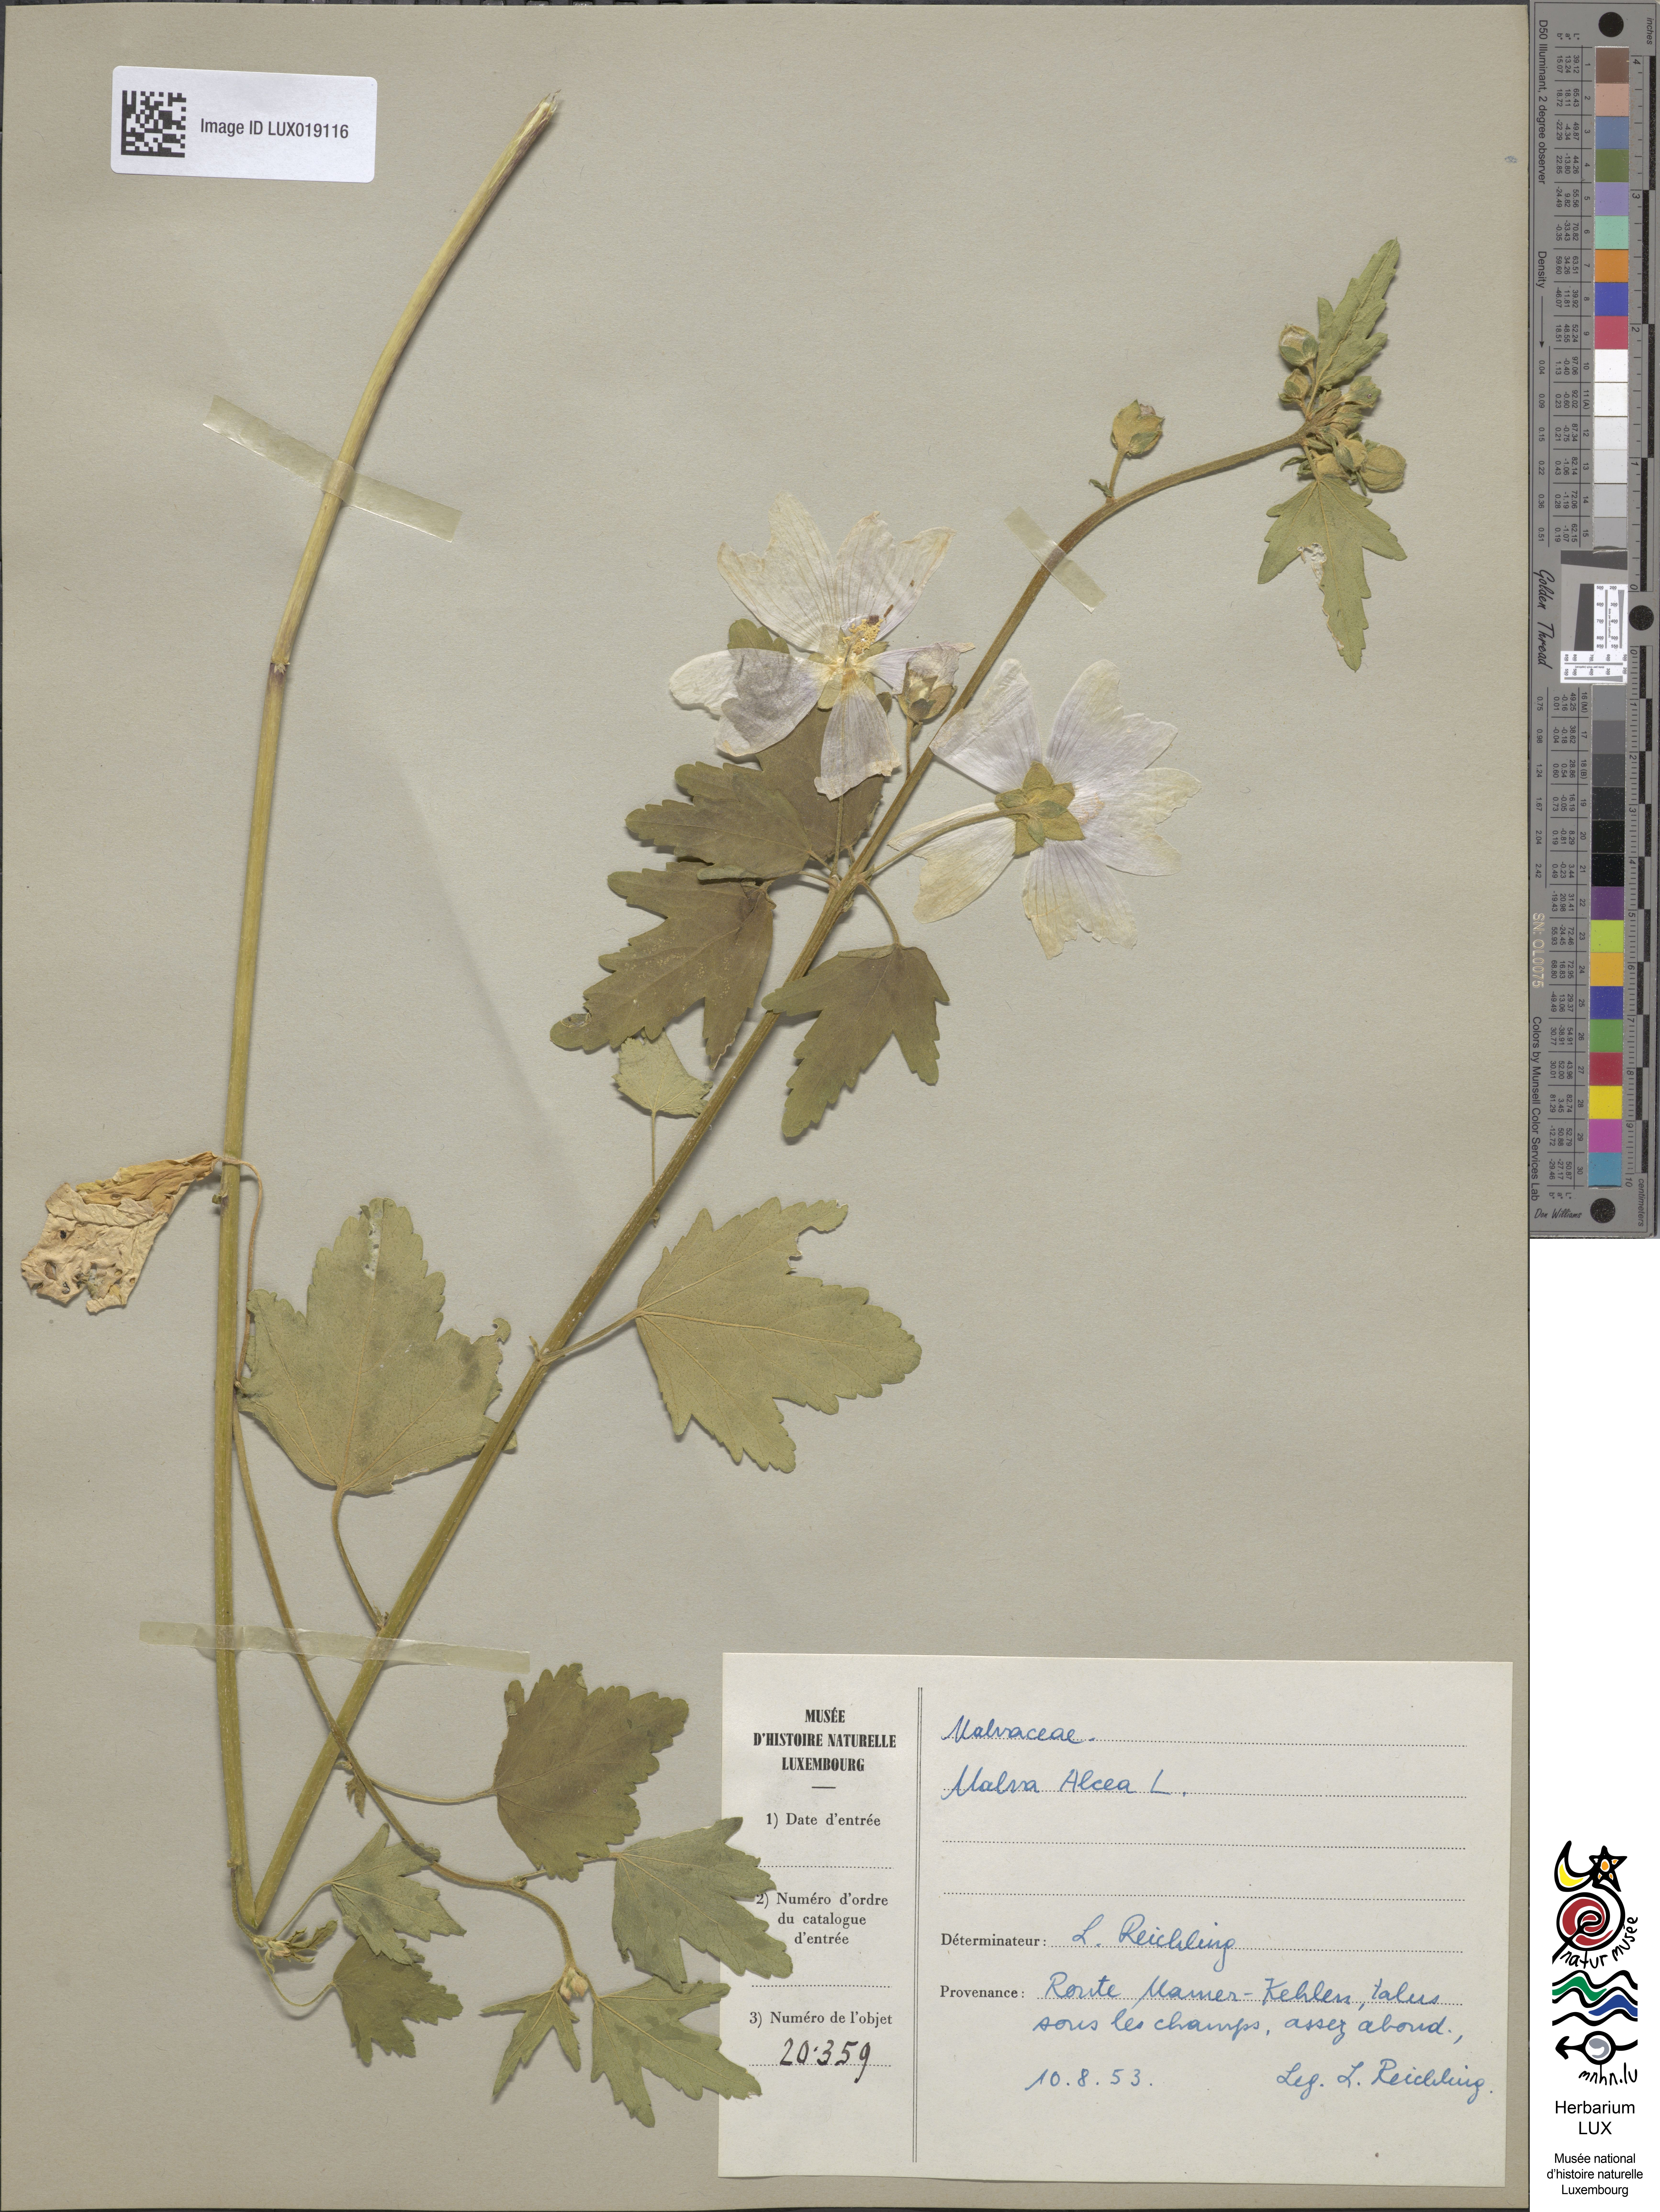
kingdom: Plantae
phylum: Tracheophyta
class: Magnoliopsida
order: Malvales
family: Malvaceae
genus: Malva
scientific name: Malva alcea
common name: Greater musk-mallow
